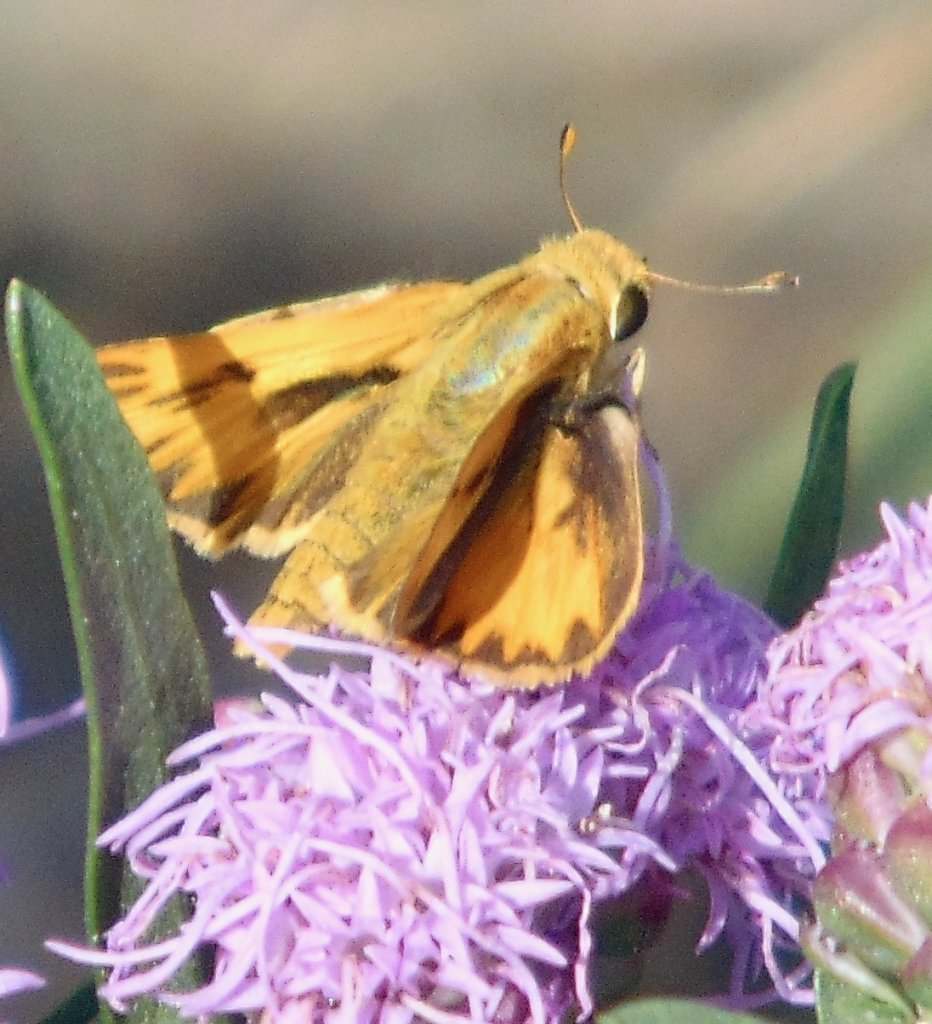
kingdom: Animalia
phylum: Arthropoda
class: Insecta
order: Lepidoptera
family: Hesperiidae
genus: Hylephila
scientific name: Hylephila phyleus
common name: Fiery Skipper
